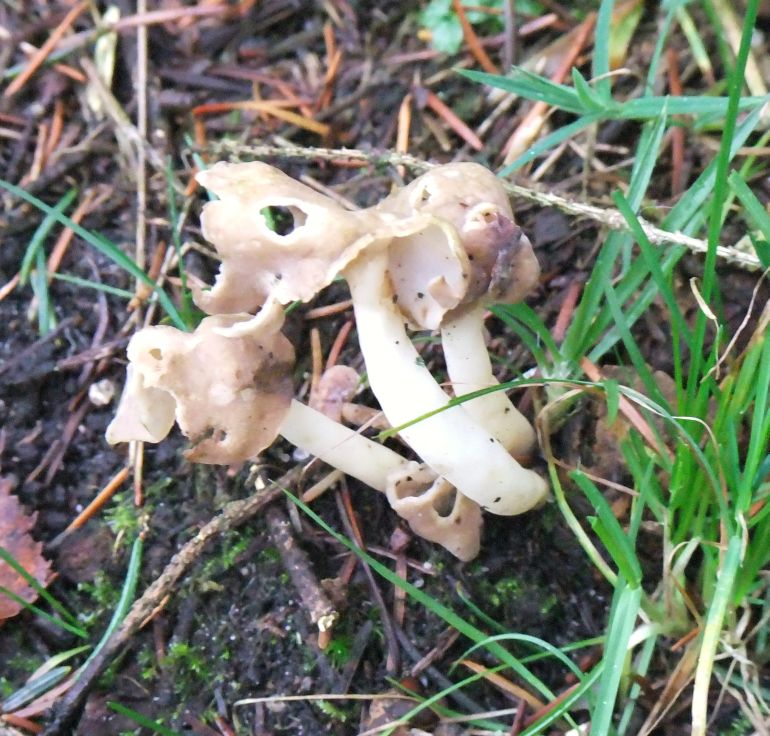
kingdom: Fungi
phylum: Ascomycota
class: Pezizomycetes
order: Pezizales
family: Helvellaceae
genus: Helvella
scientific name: Helvella elastica
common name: elastik-foldhat
